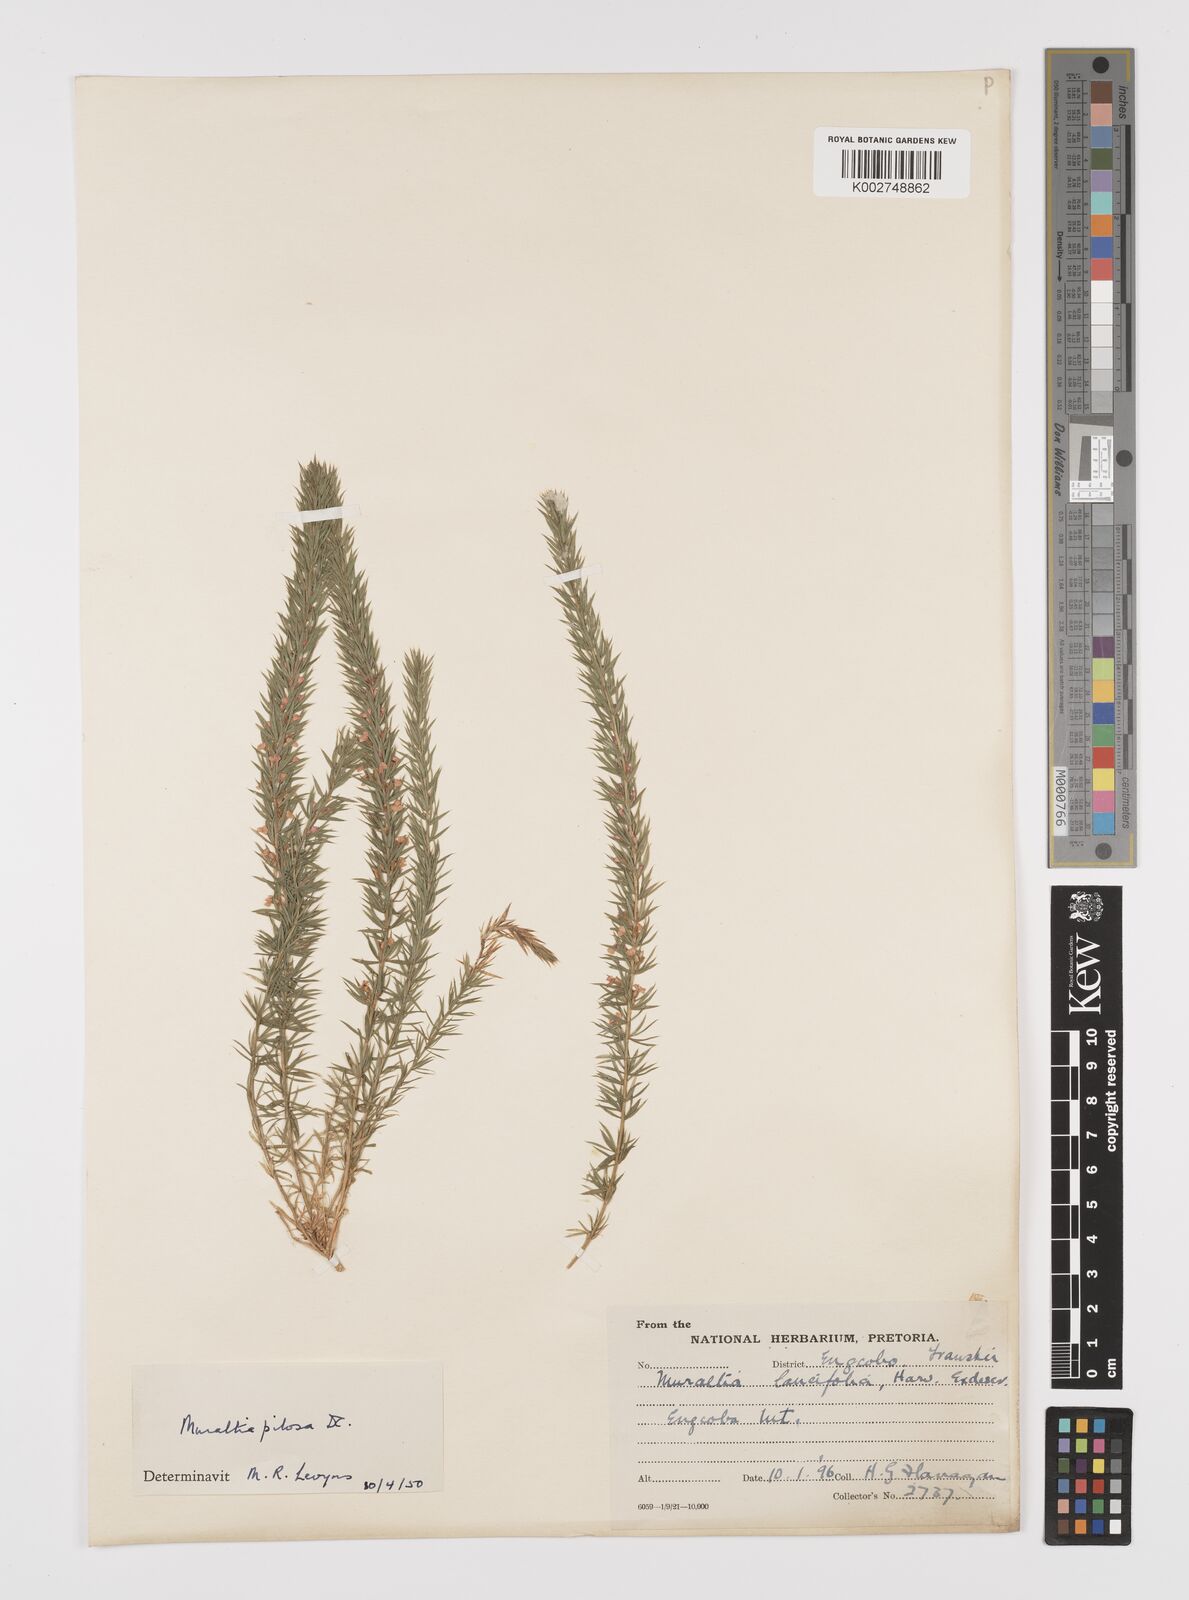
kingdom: Plantae
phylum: Tracheophyta
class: Magnoliopsida
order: Fabales
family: Polygalaceae
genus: Muraltia
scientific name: Muraltia lancifolia
